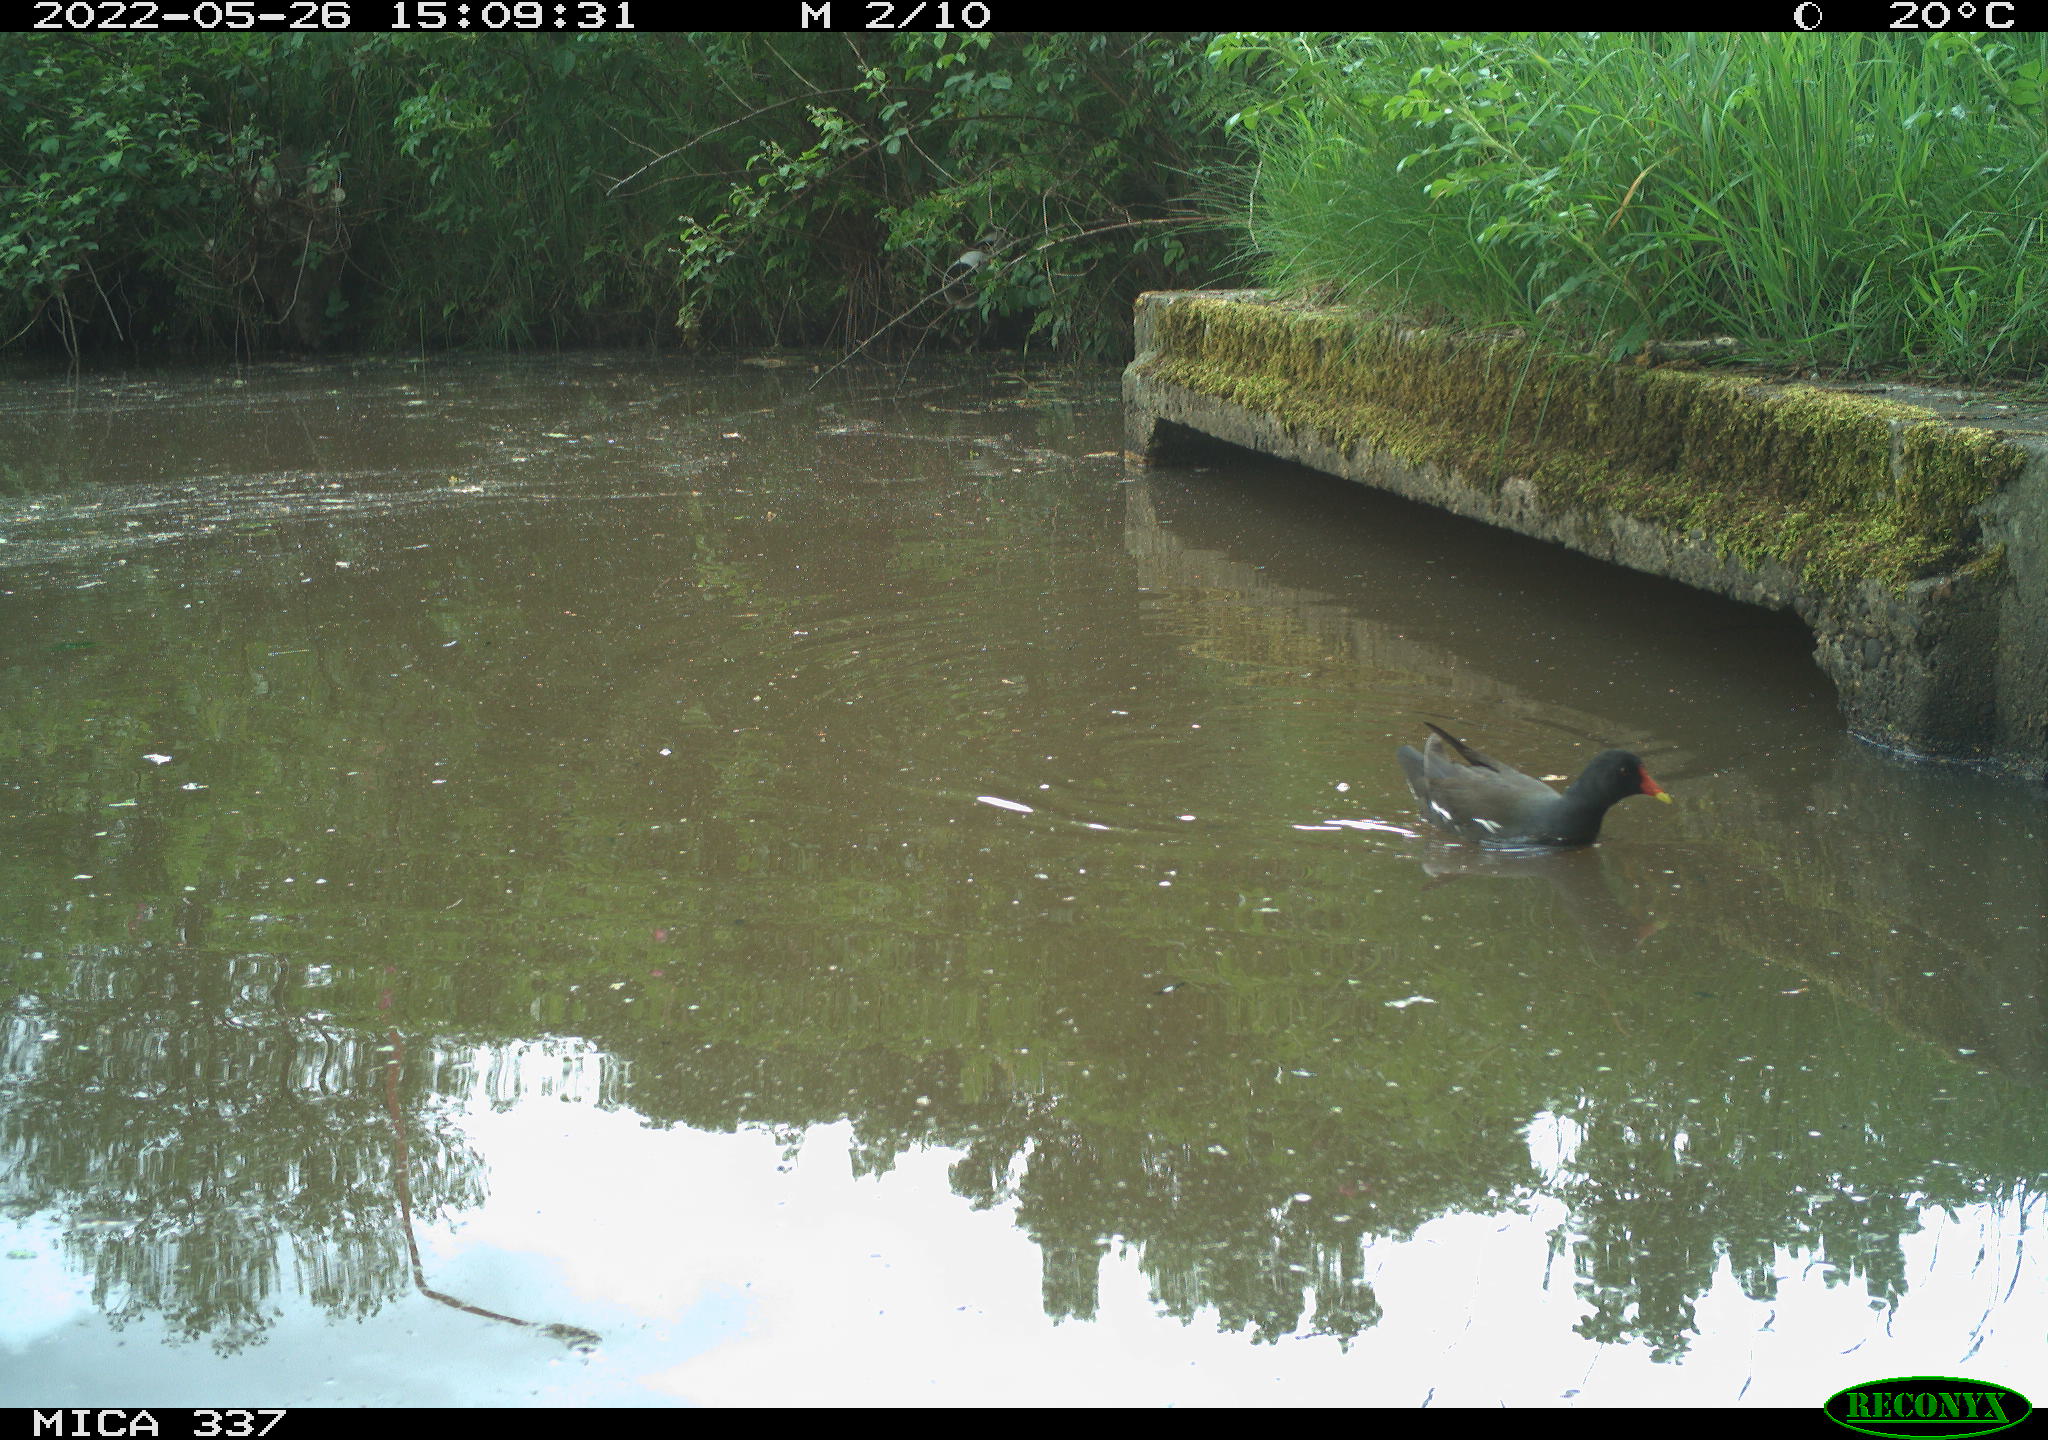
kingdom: Animalia
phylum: Chordata
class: Aves
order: Gruiformes
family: Rallidae
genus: Gallinula
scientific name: Gallinula chloropus
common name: Common moorhen
